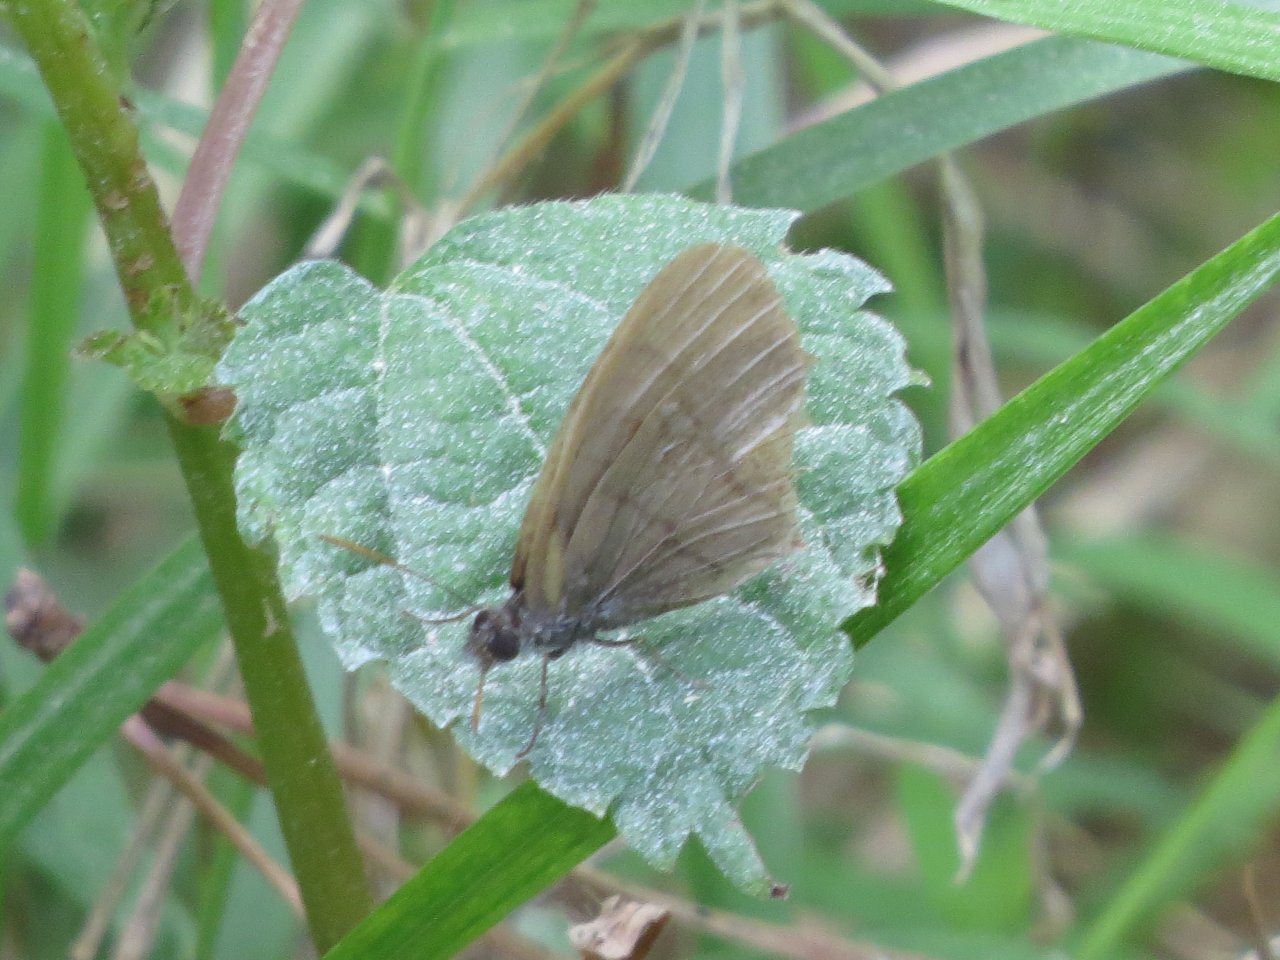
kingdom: Animalia
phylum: Arthropoda
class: Insecta
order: Lepidoptera
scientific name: Lepidoptera
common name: Butterflies
